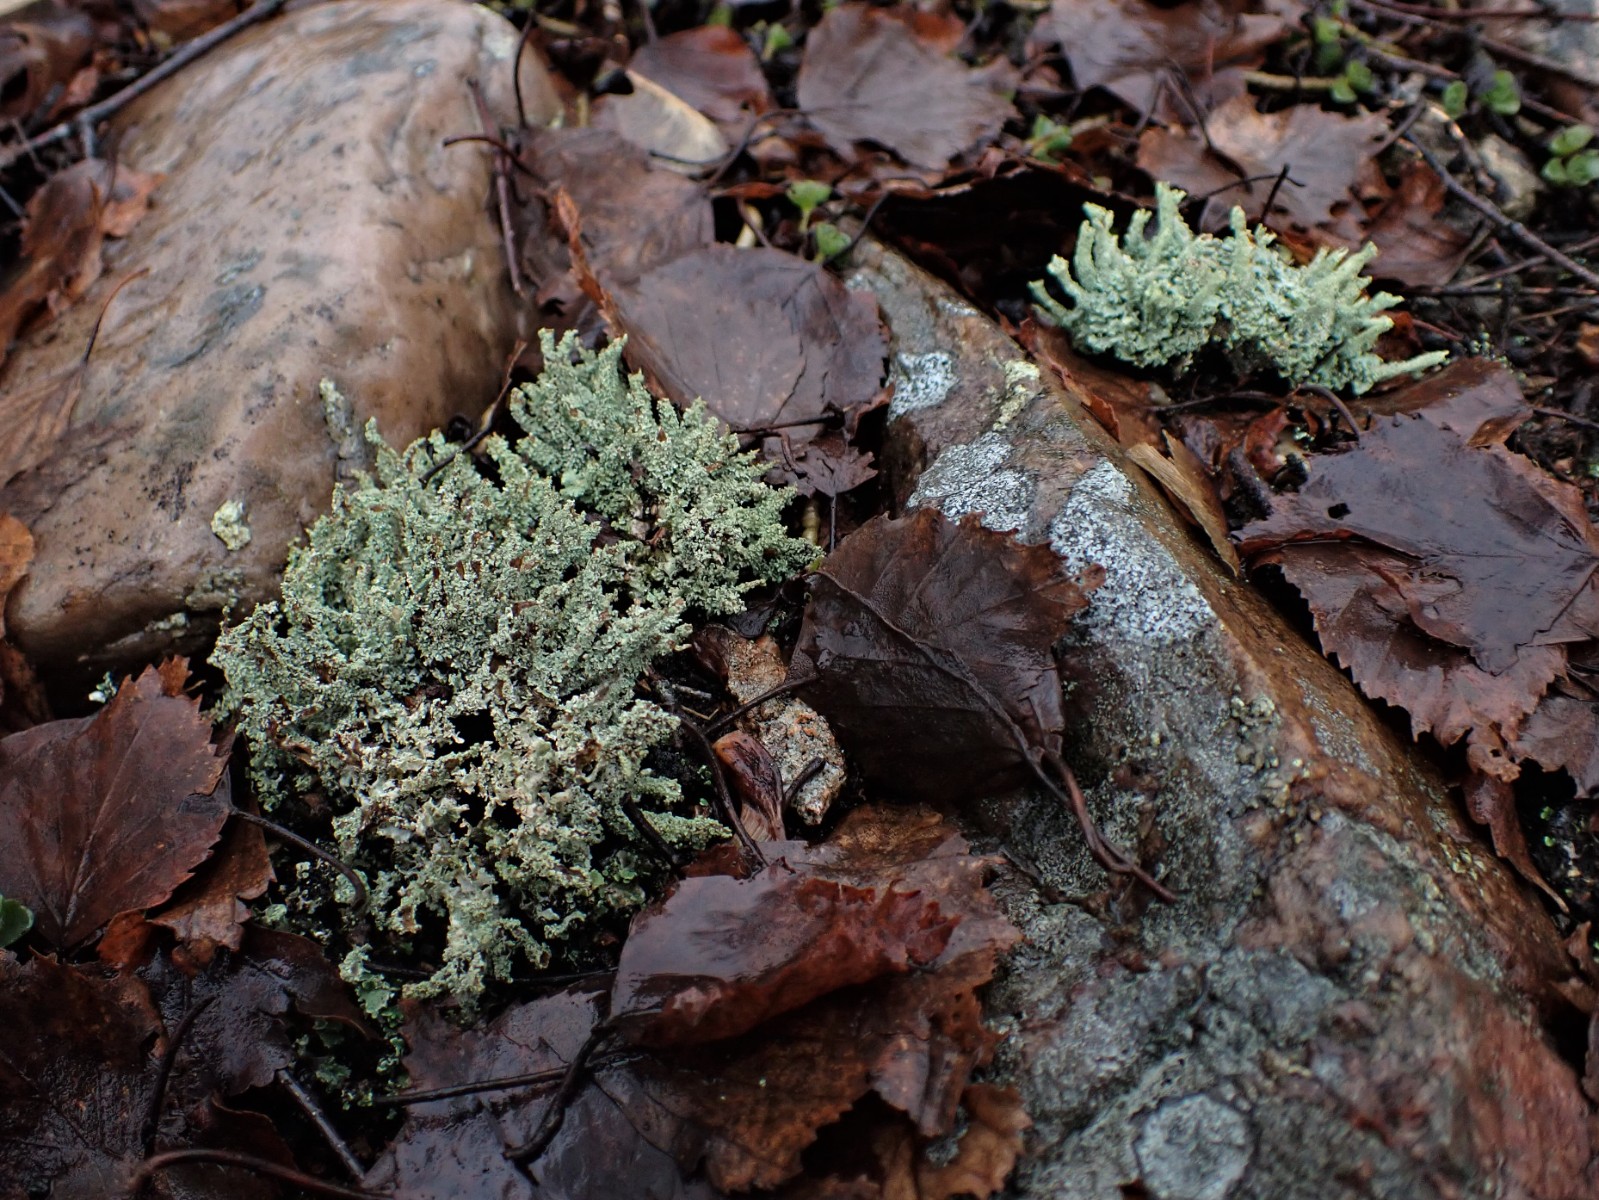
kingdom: Fungi
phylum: Ascomycota
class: Lecanoromycetes
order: Lecanorales
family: Cladoniaceae
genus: Cladonia
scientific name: Cladonia
